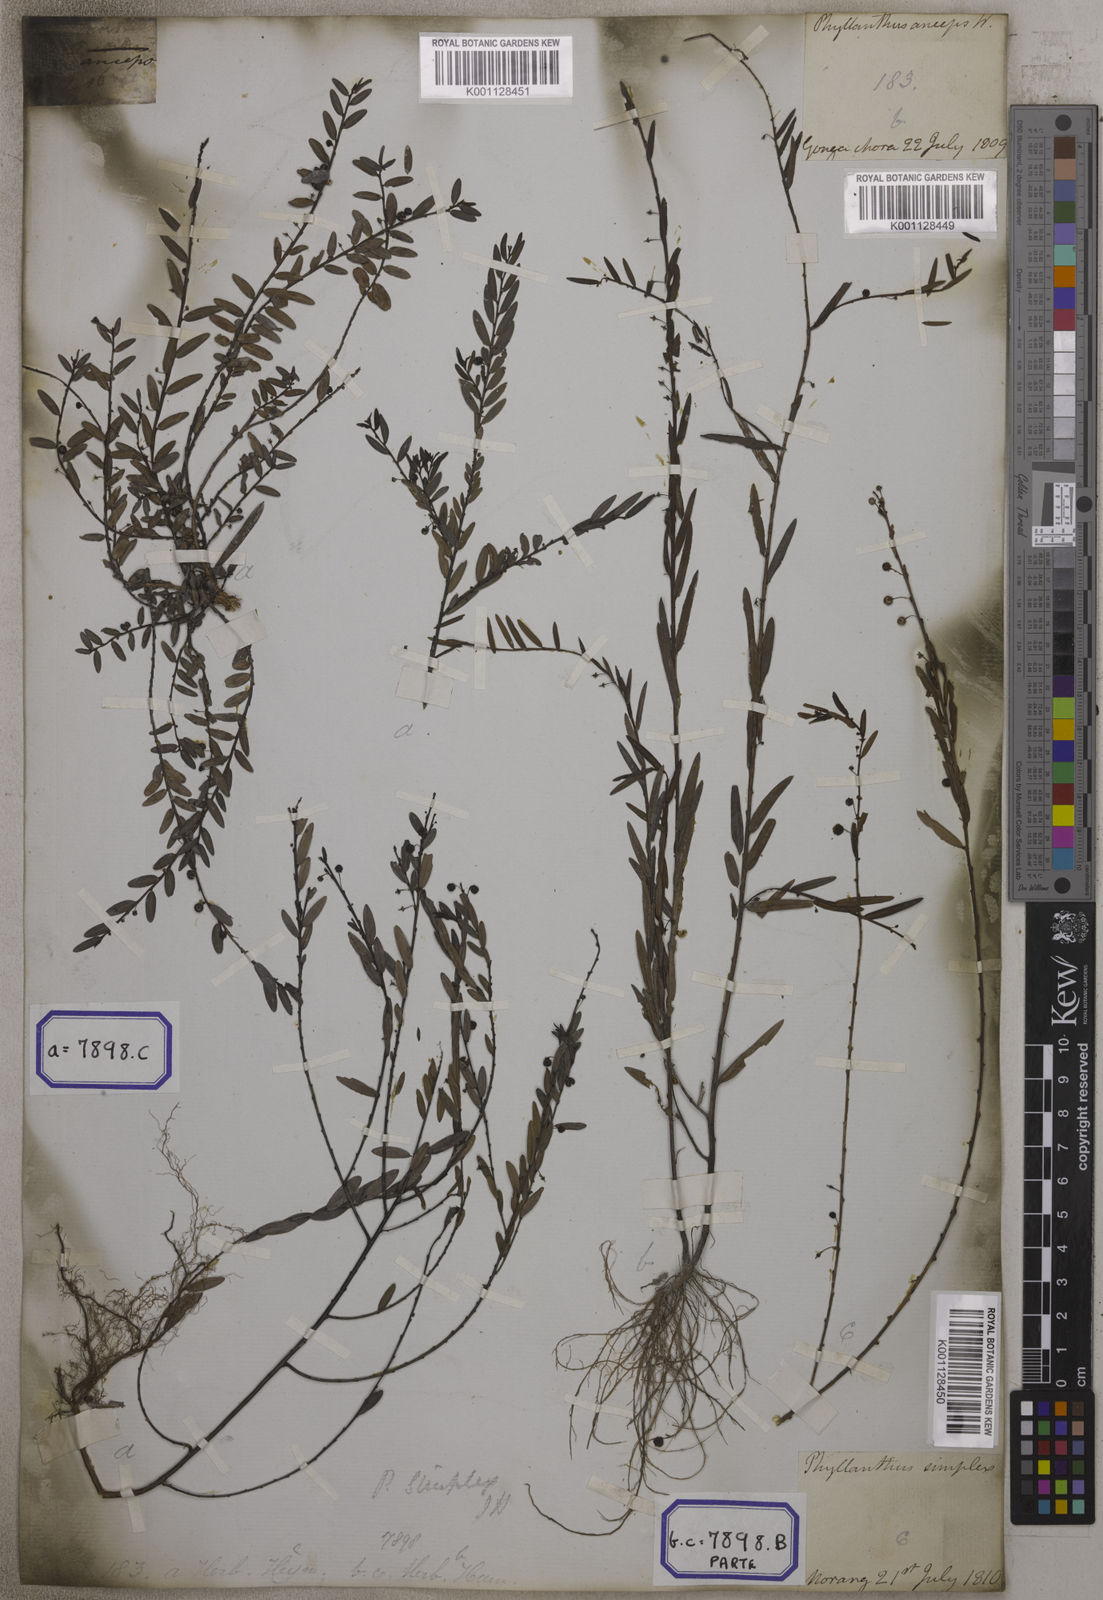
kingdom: Plantae
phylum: Tracheophyta
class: Magnoliopsida
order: Malpighiales
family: Euphorbiaceae
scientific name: Euphorbiaceae
